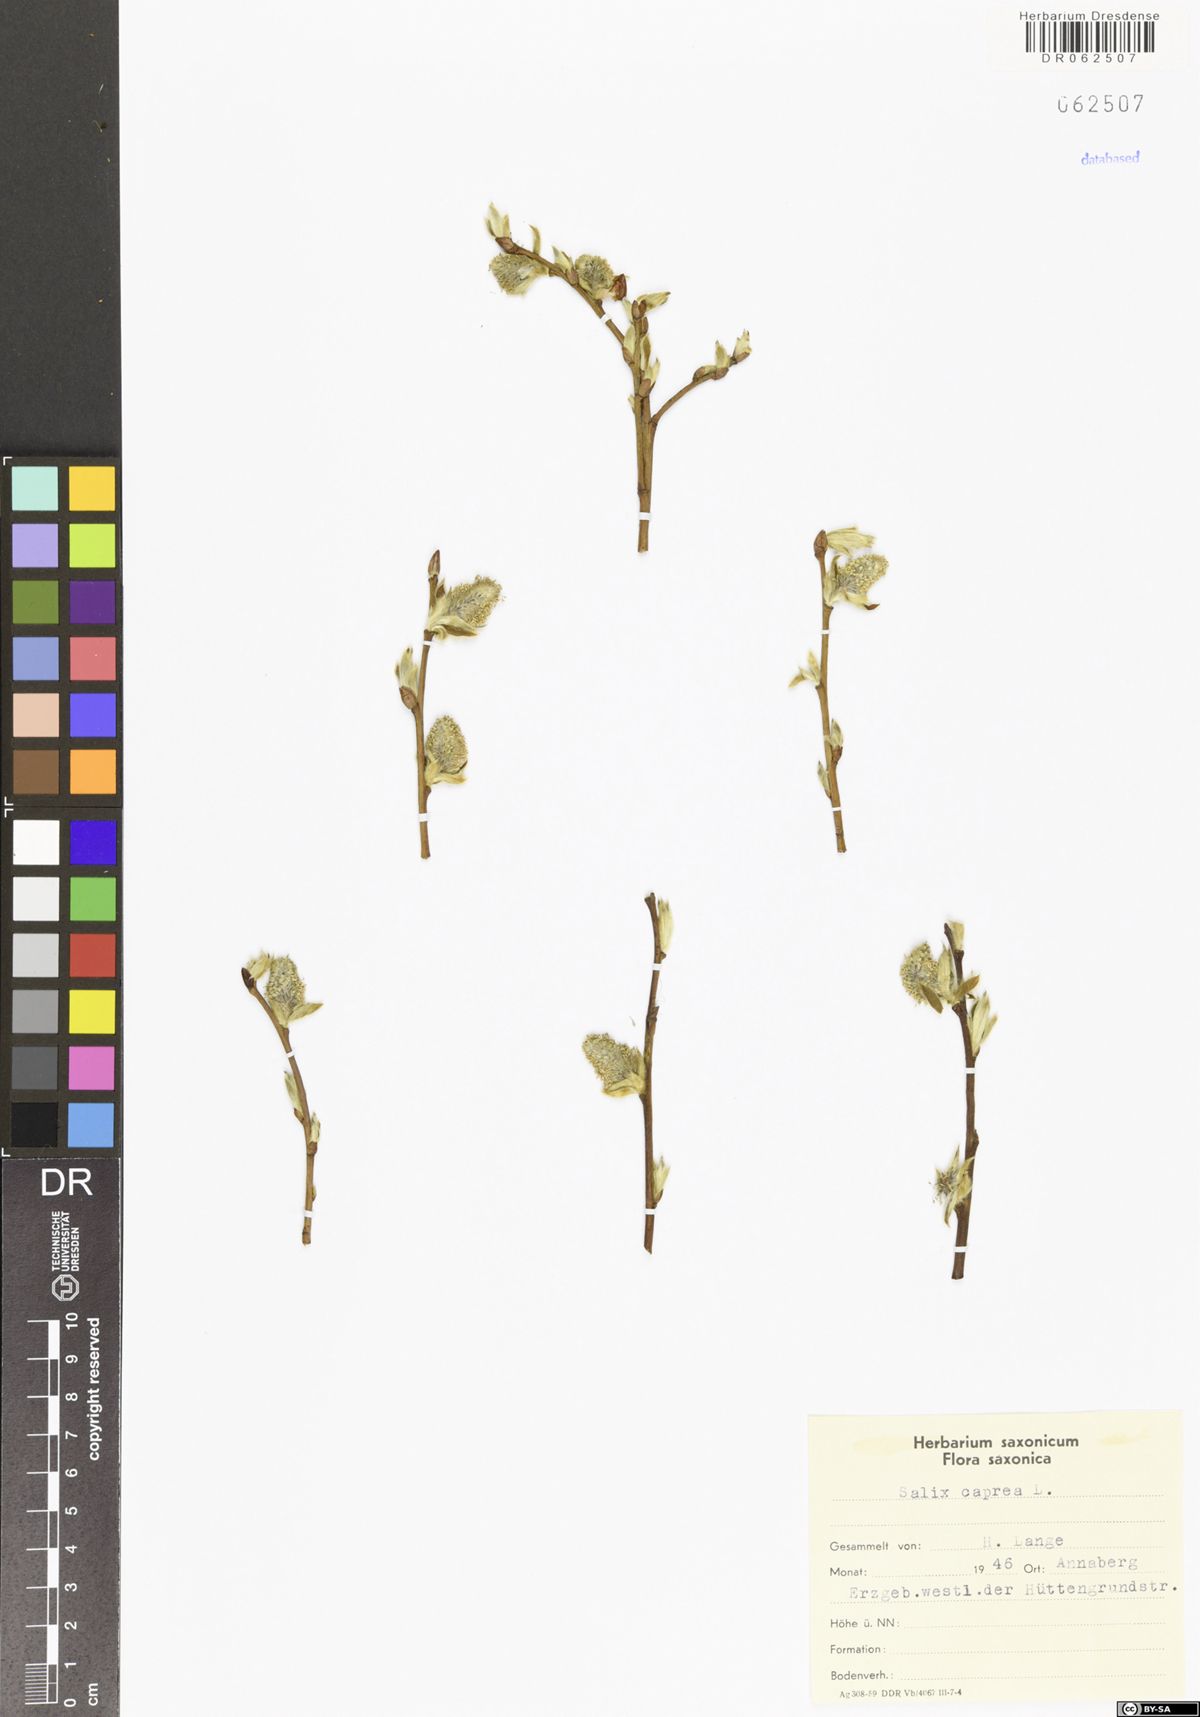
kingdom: Plantae
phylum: Tracheophyta
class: Magnoliopsida
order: Malpighiales
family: Salicaceae
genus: Salix
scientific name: Salix caprea
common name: Goat willow
